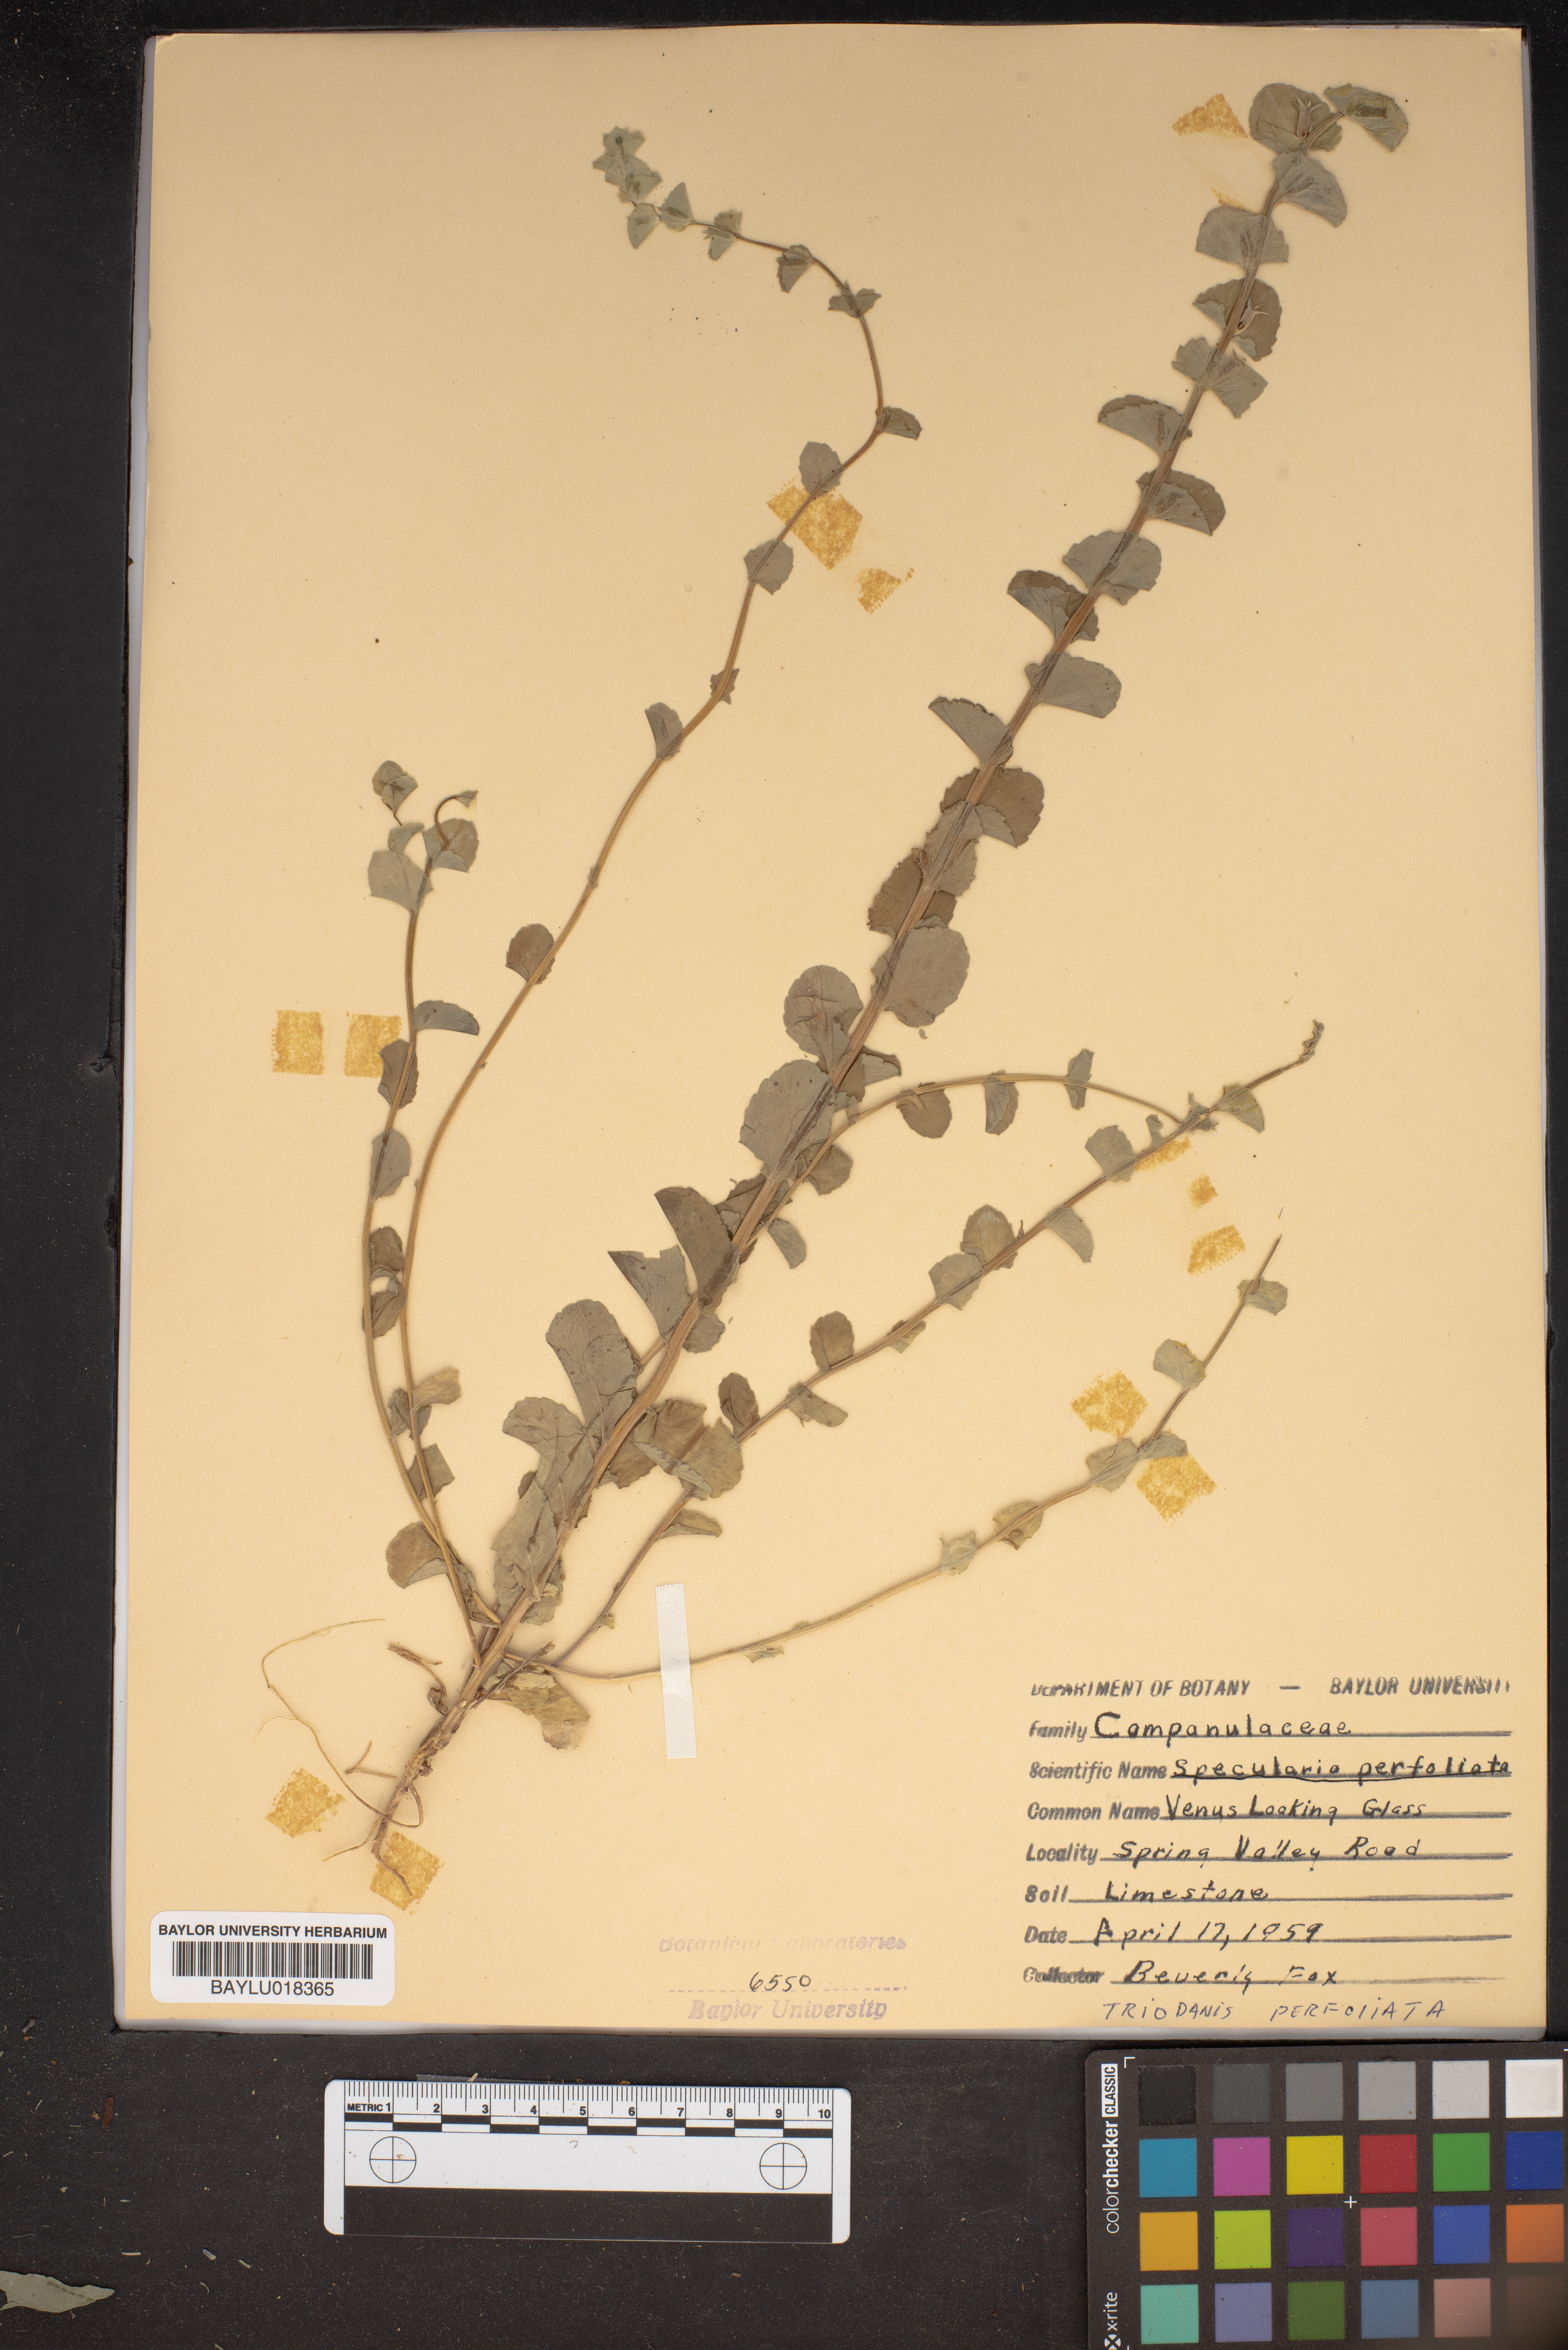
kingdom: Plantae
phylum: Tracheophyta
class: Magnoliopsida
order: Asterales
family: Campanulaceae
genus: Triodanis
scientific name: Triodanis perfoliata
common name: Clasping venus' looking-glass
